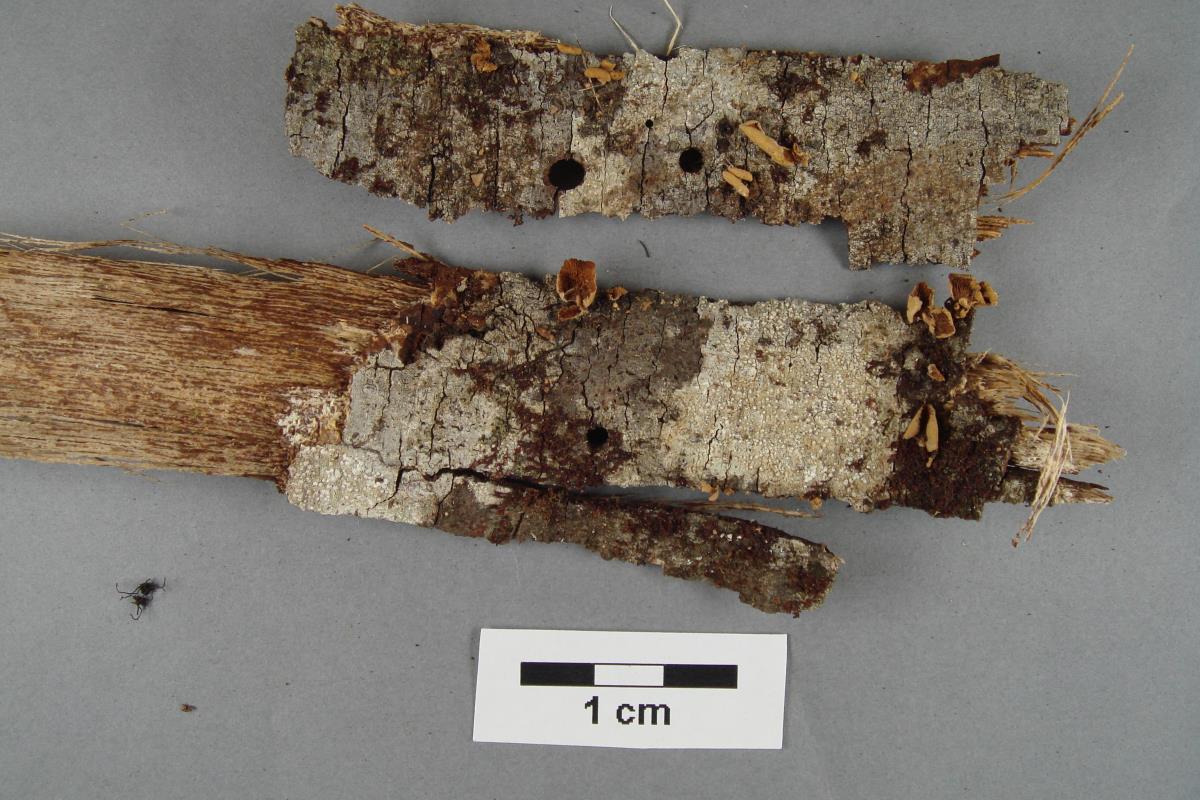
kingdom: Fungi
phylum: Basidiomycota
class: Agaricomycetes
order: Agaricales
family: Mycenaceae
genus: Panellus
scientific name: Panellus
